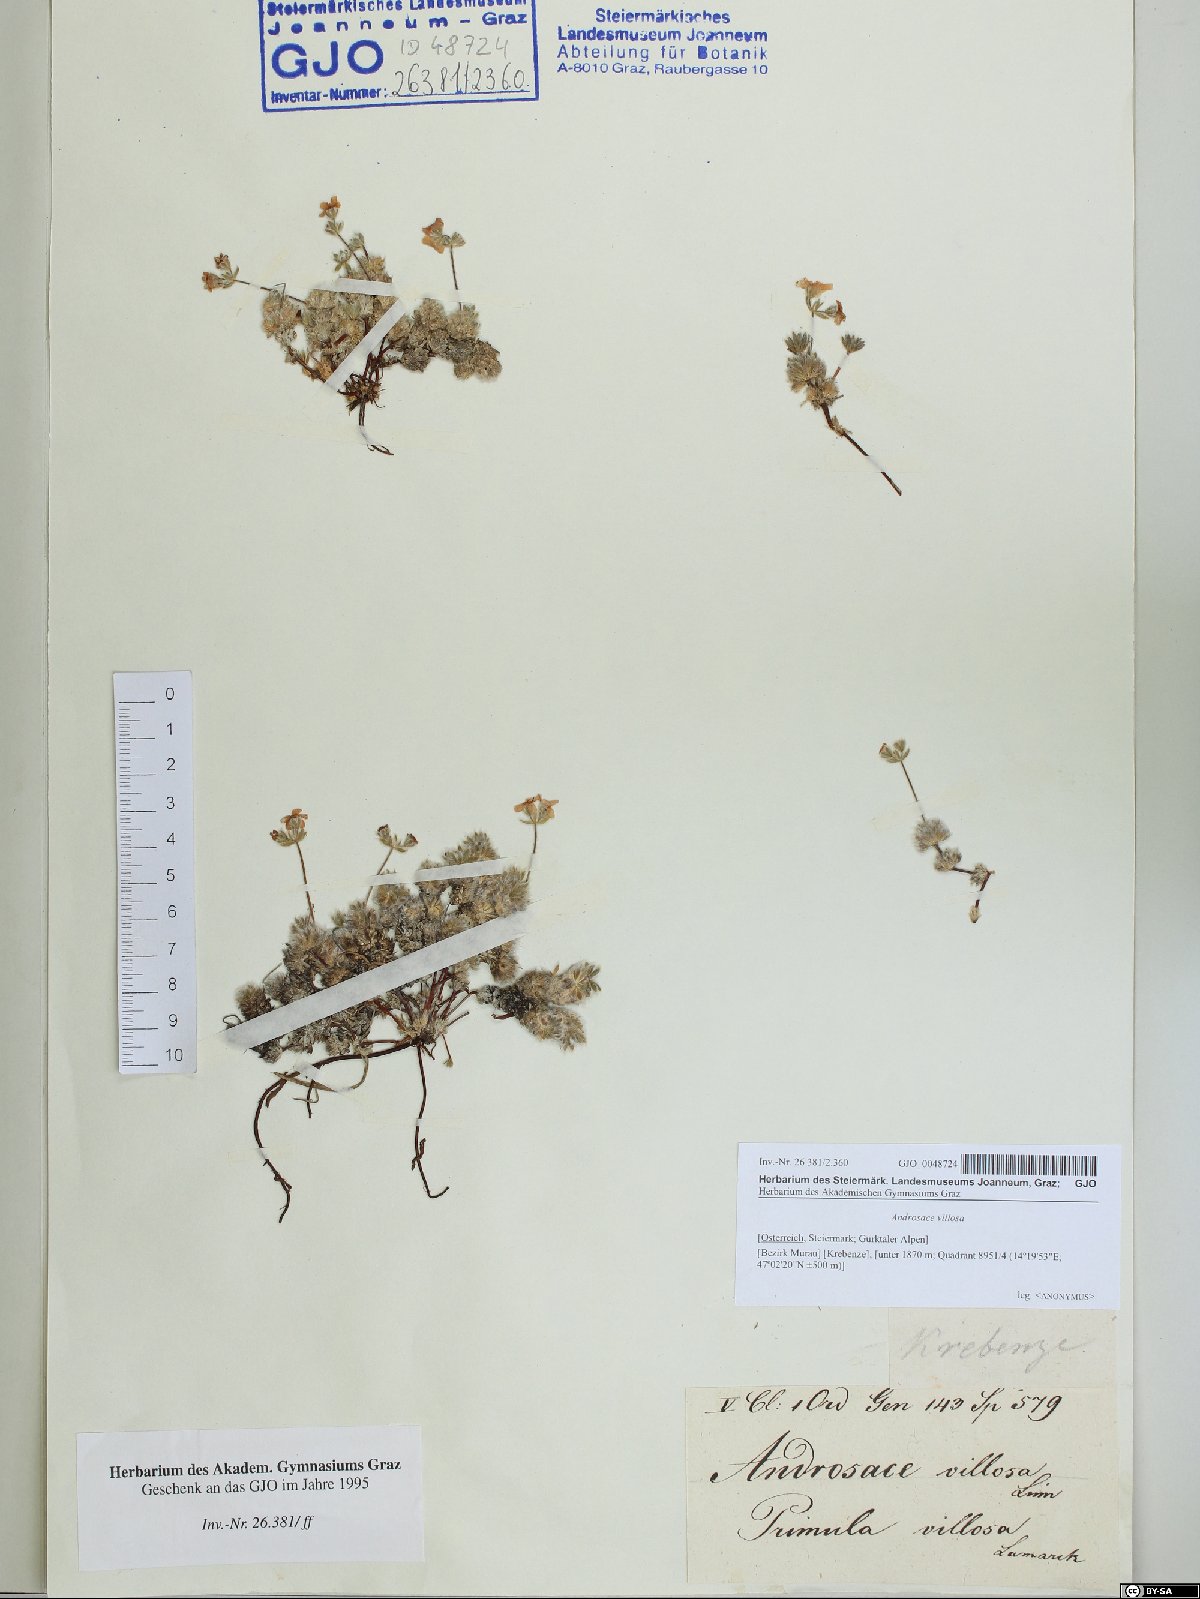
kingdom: Plantae
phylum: Tracheophyta
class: Magnoliopsida
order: Ericales
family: Primulaceae
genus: Androsace
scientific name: Androsace villosa
